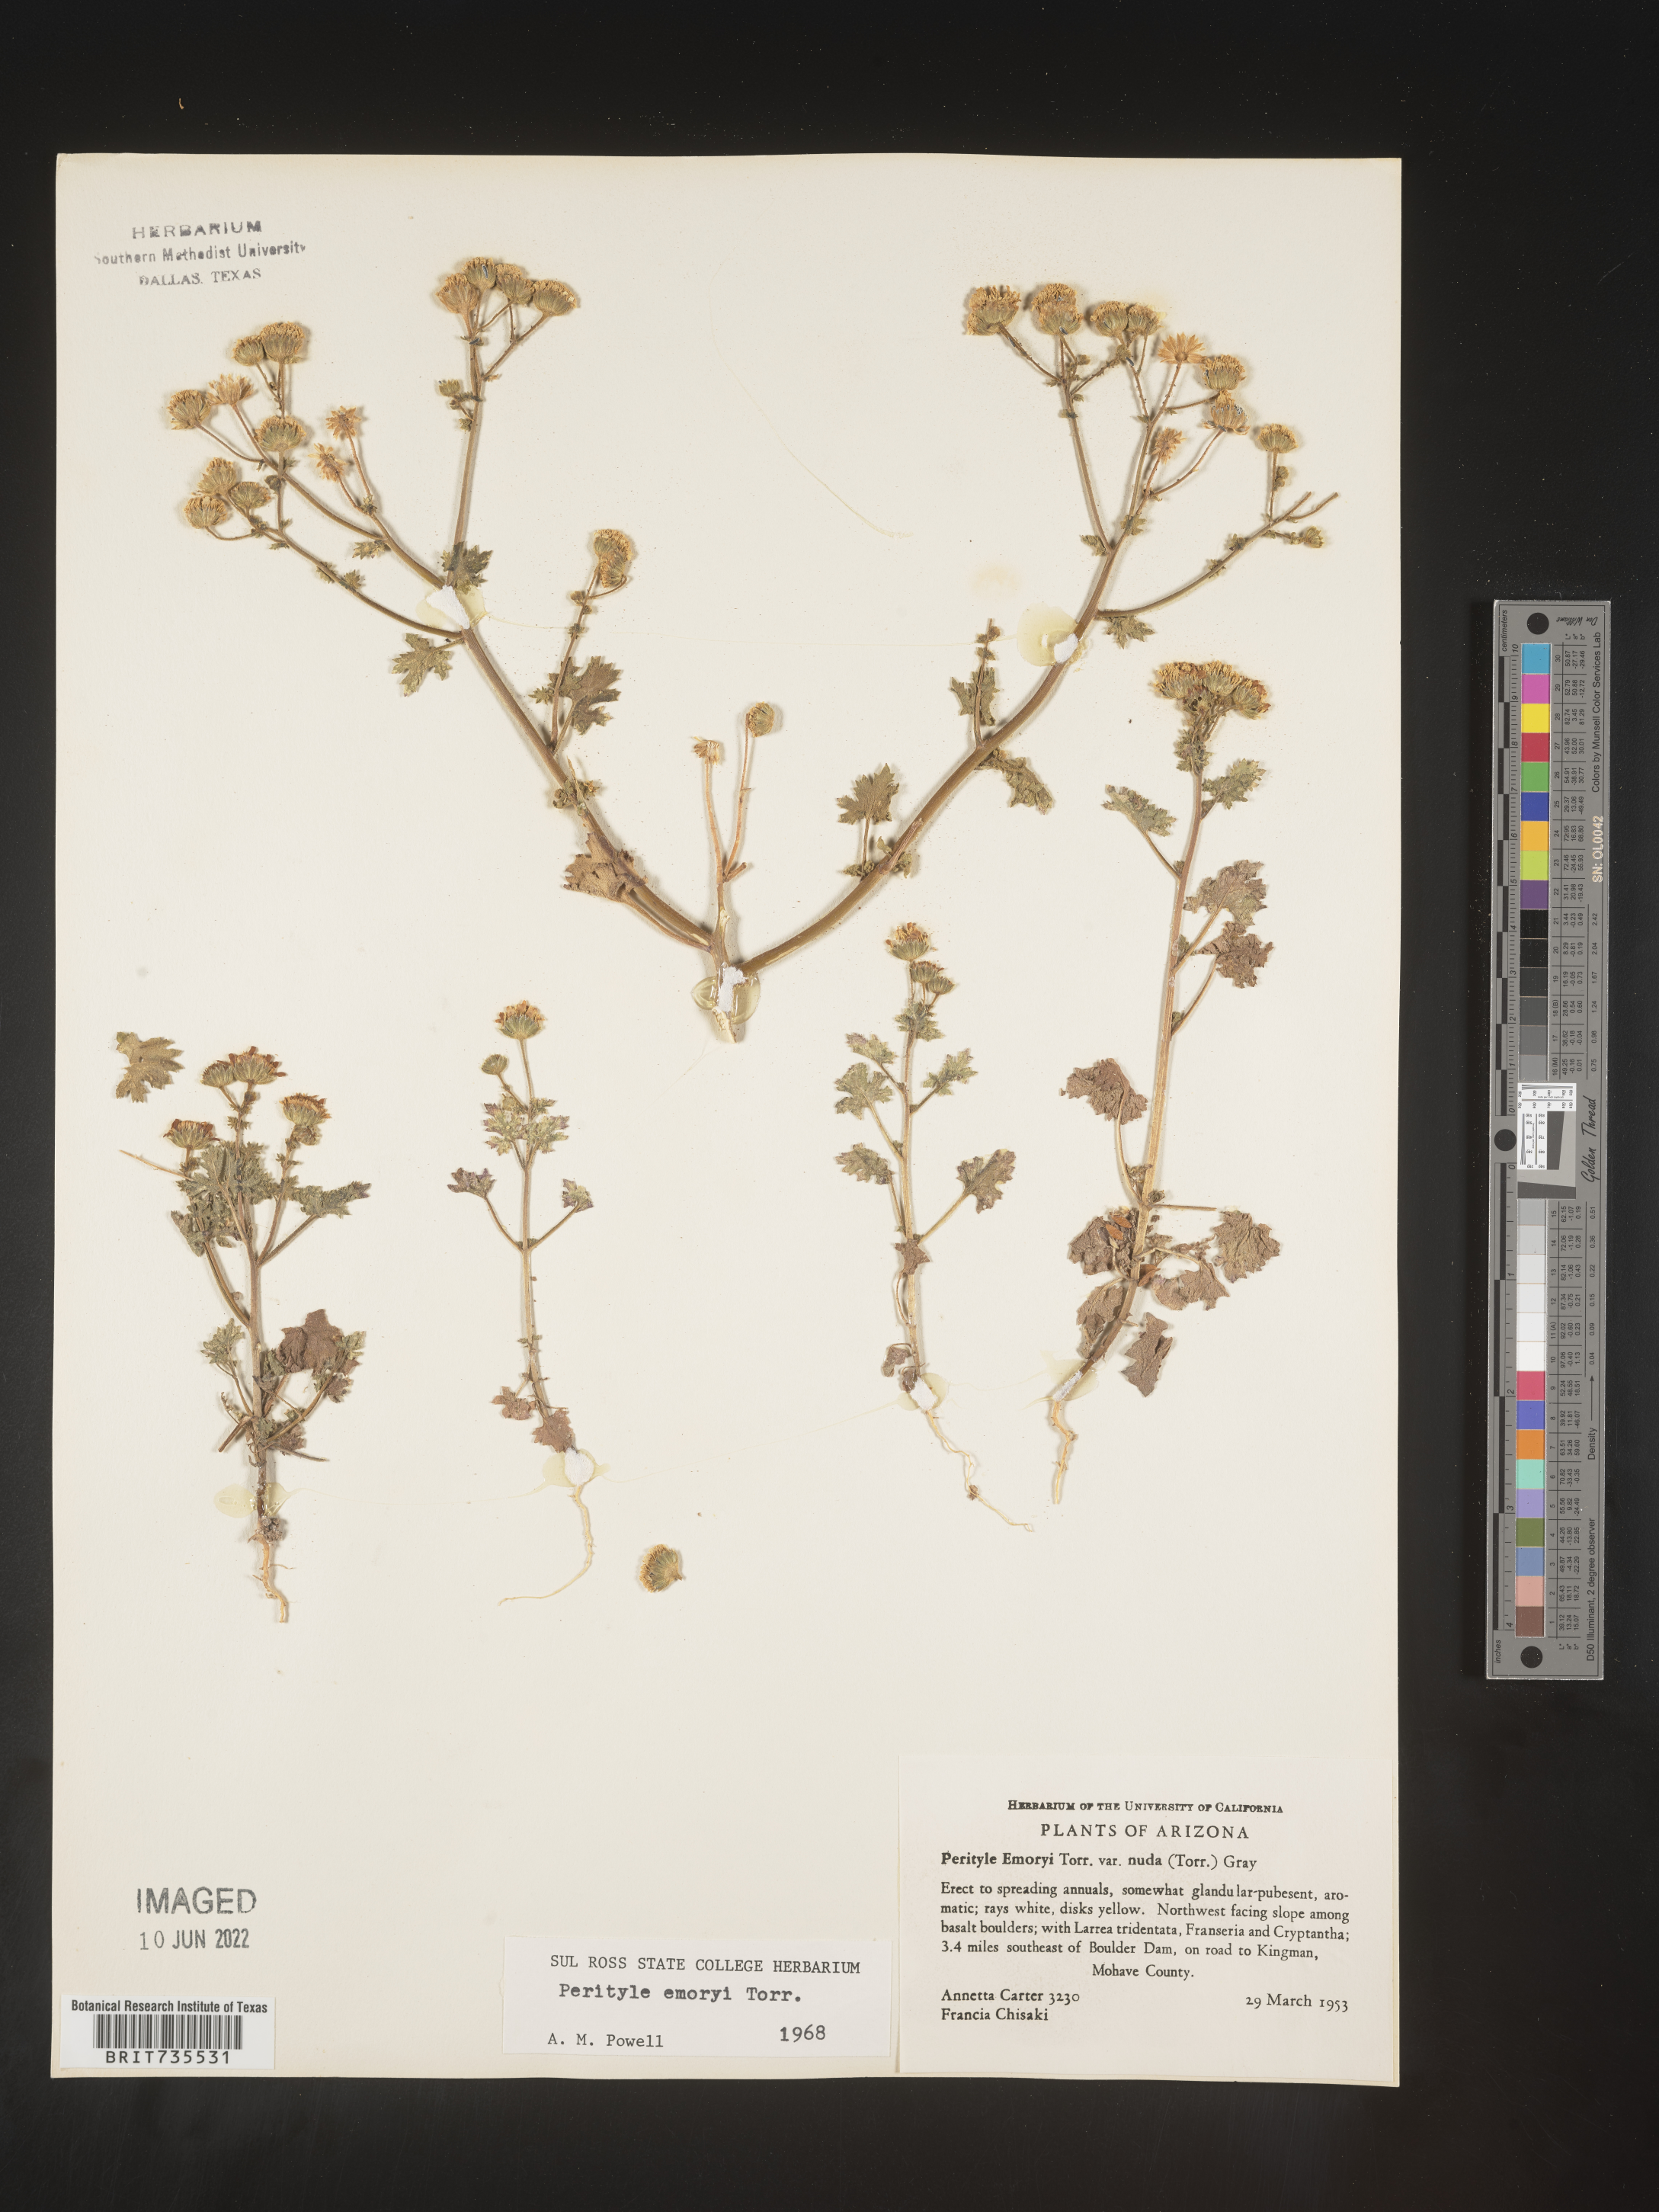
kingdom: Plantae
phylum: Tracheophyta
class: Magnoliopsida
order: Asterales
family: Asteraceae
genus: Perityle
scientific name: Perityle
